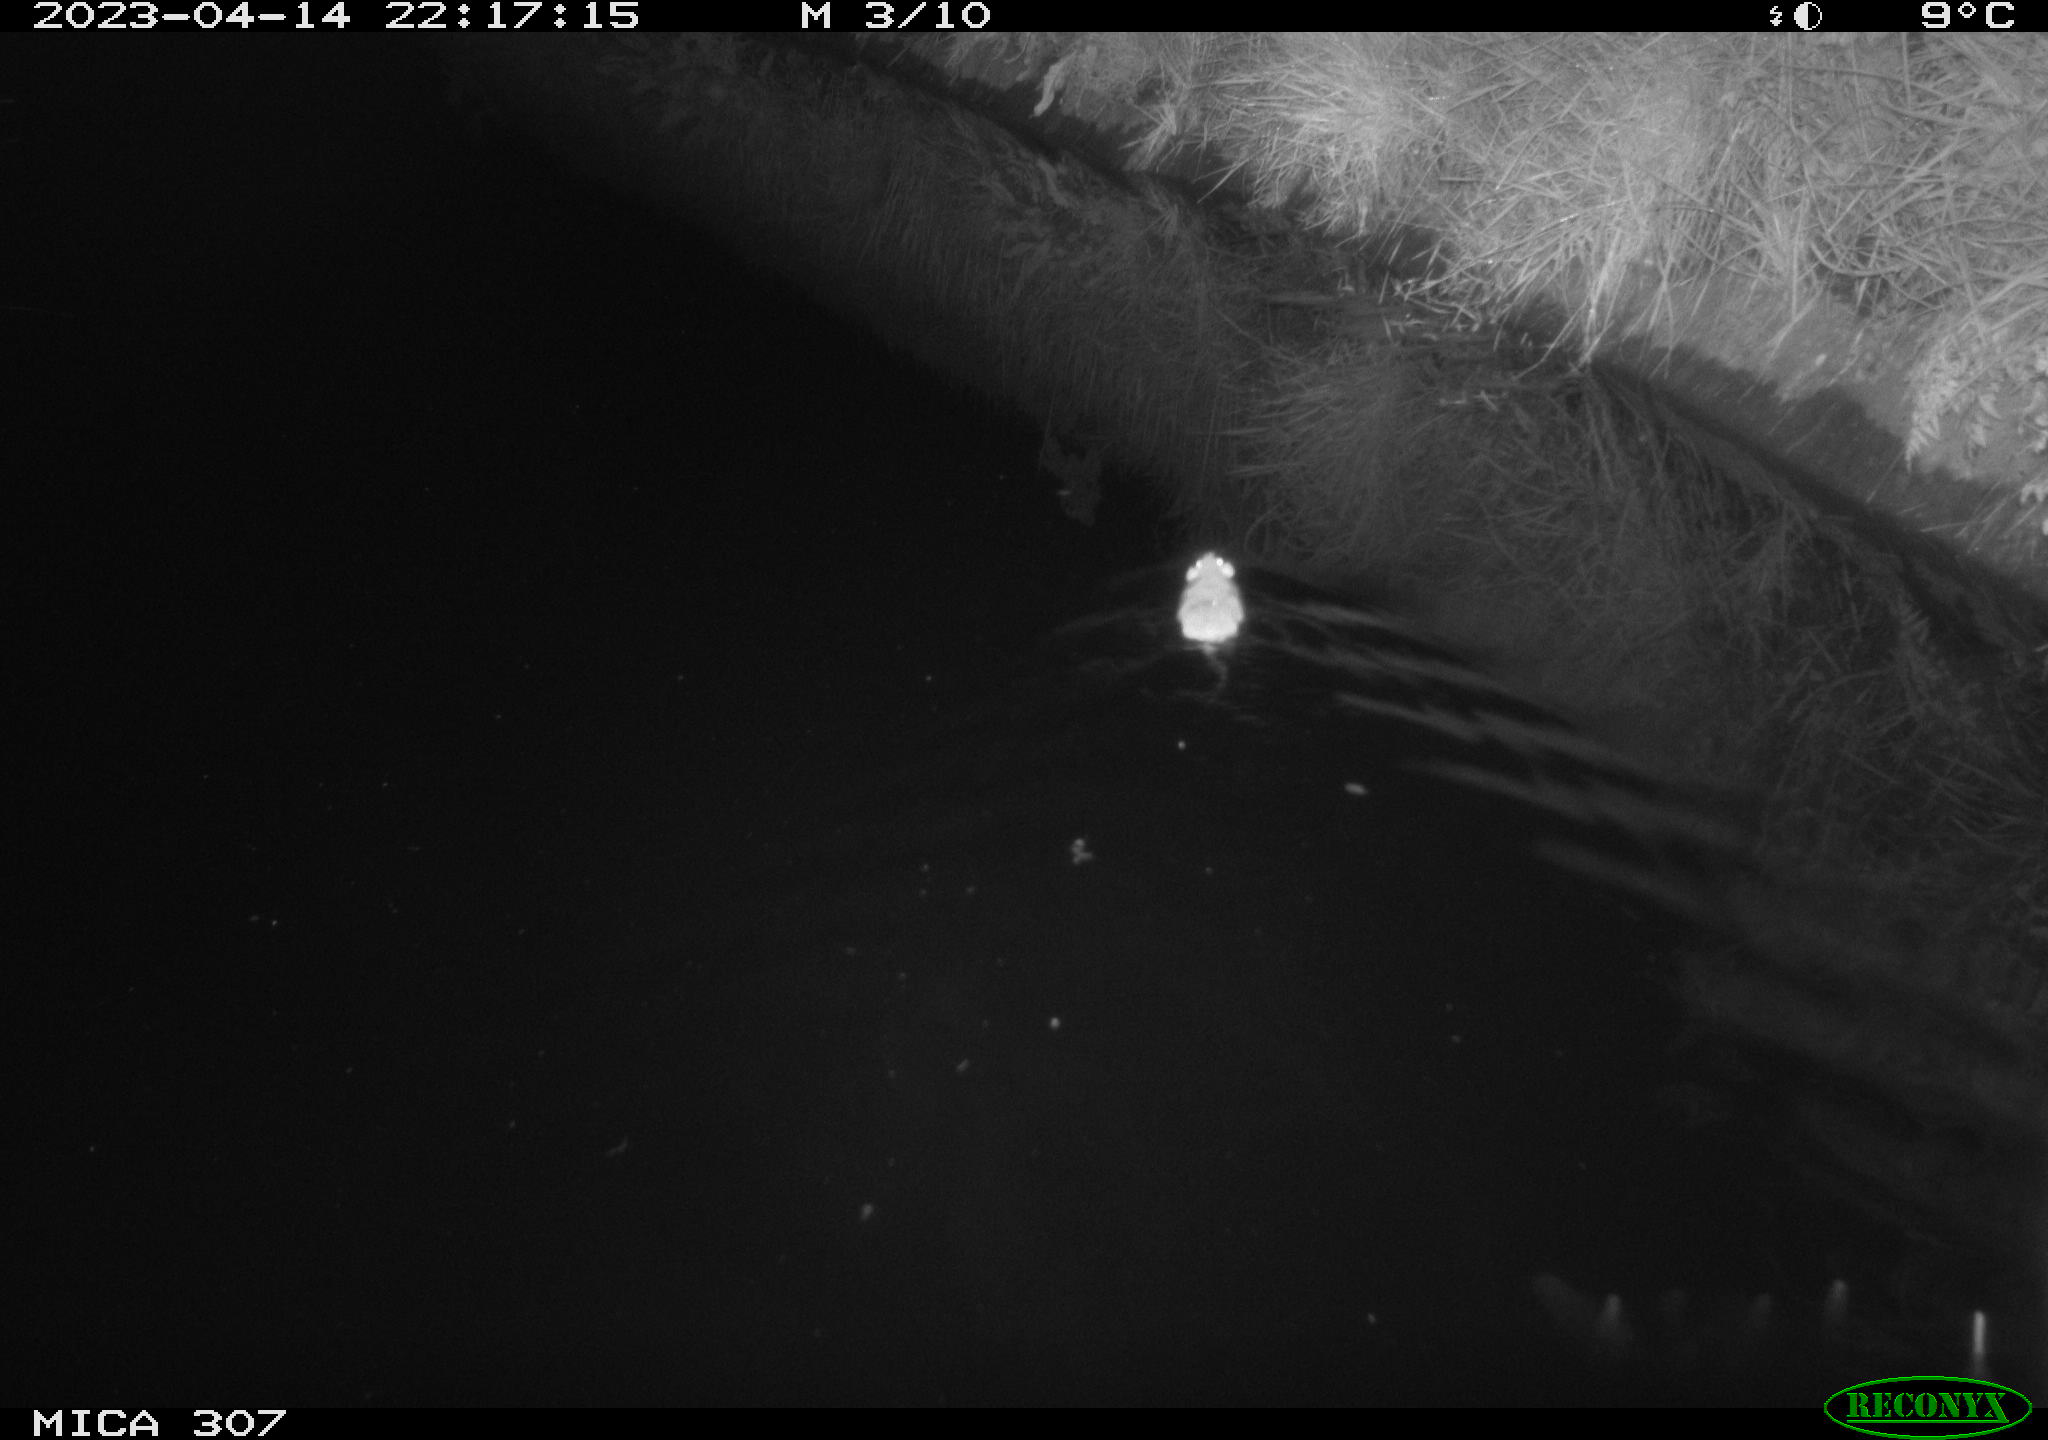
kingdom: Animalia
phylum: Chordata
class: Mammalia
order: Rodentia
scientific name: Rodentia
